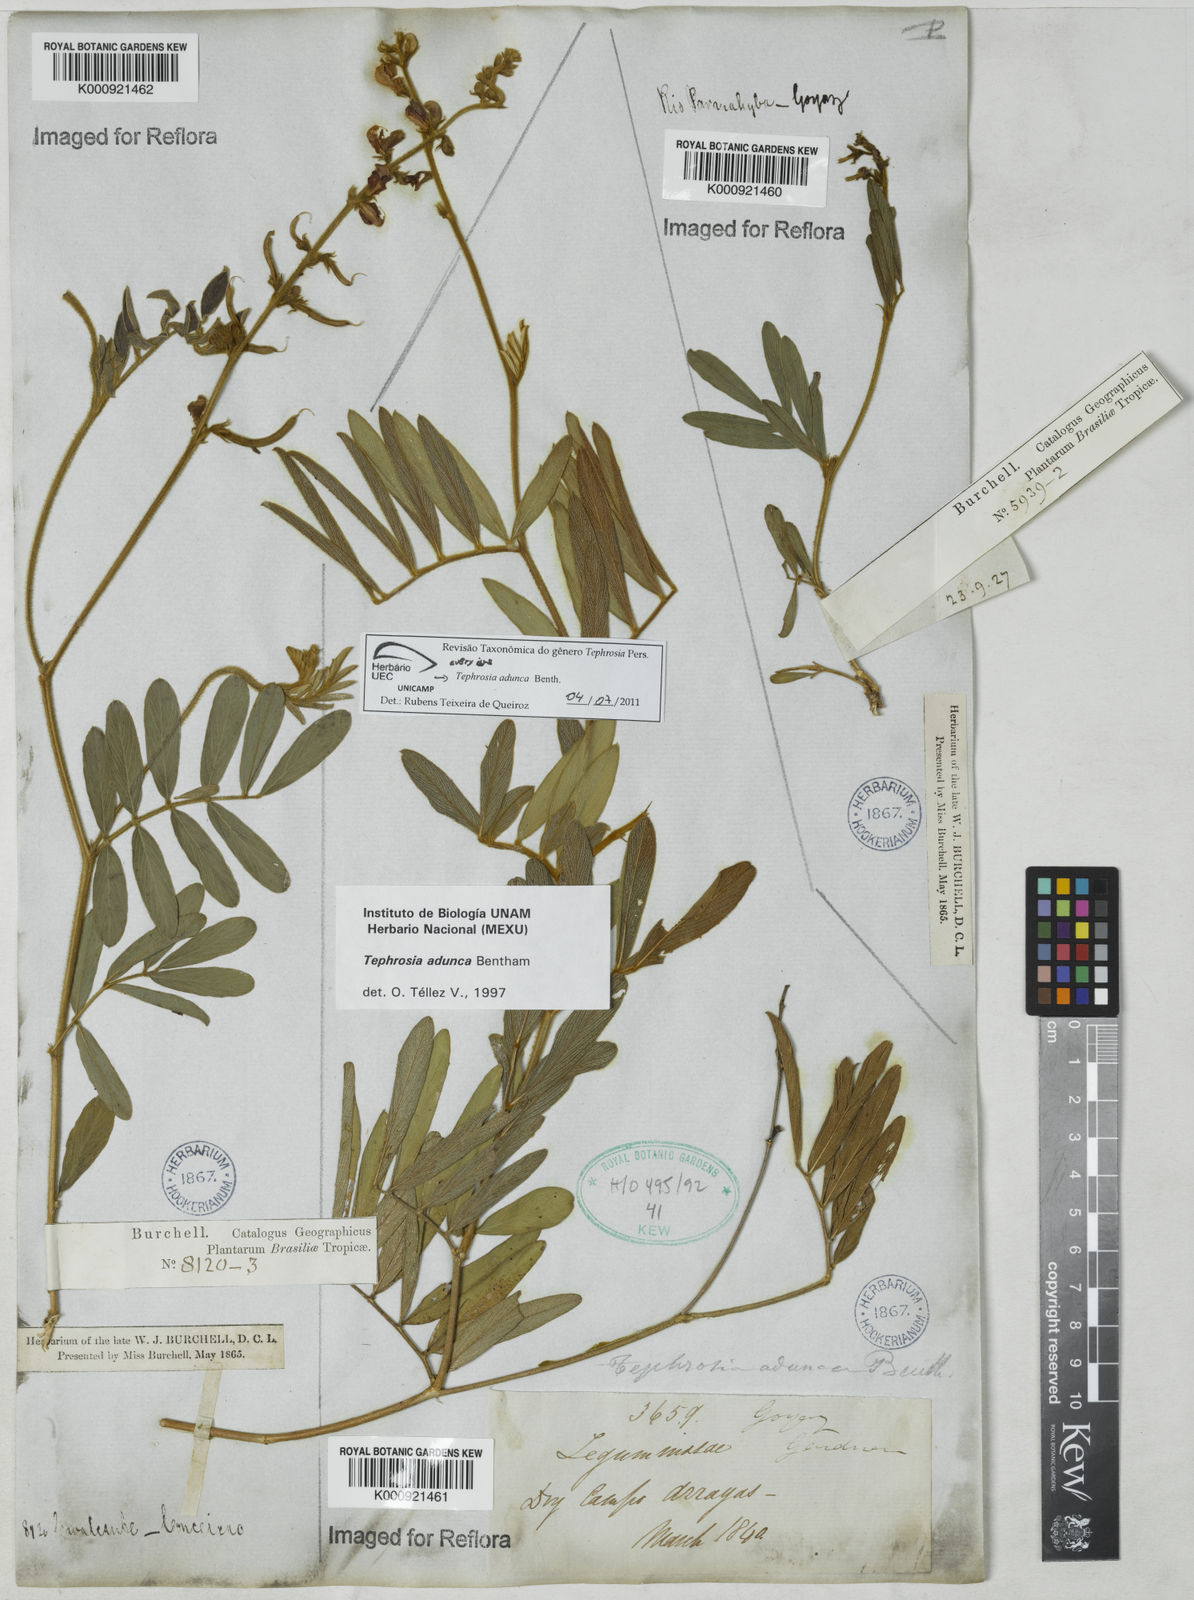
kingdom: Plantae
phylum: Tracheophyta
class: Magnoliopsida
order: Fabales
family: Fabaceae
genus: Tephrosia
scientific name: Tephrosia adunca
